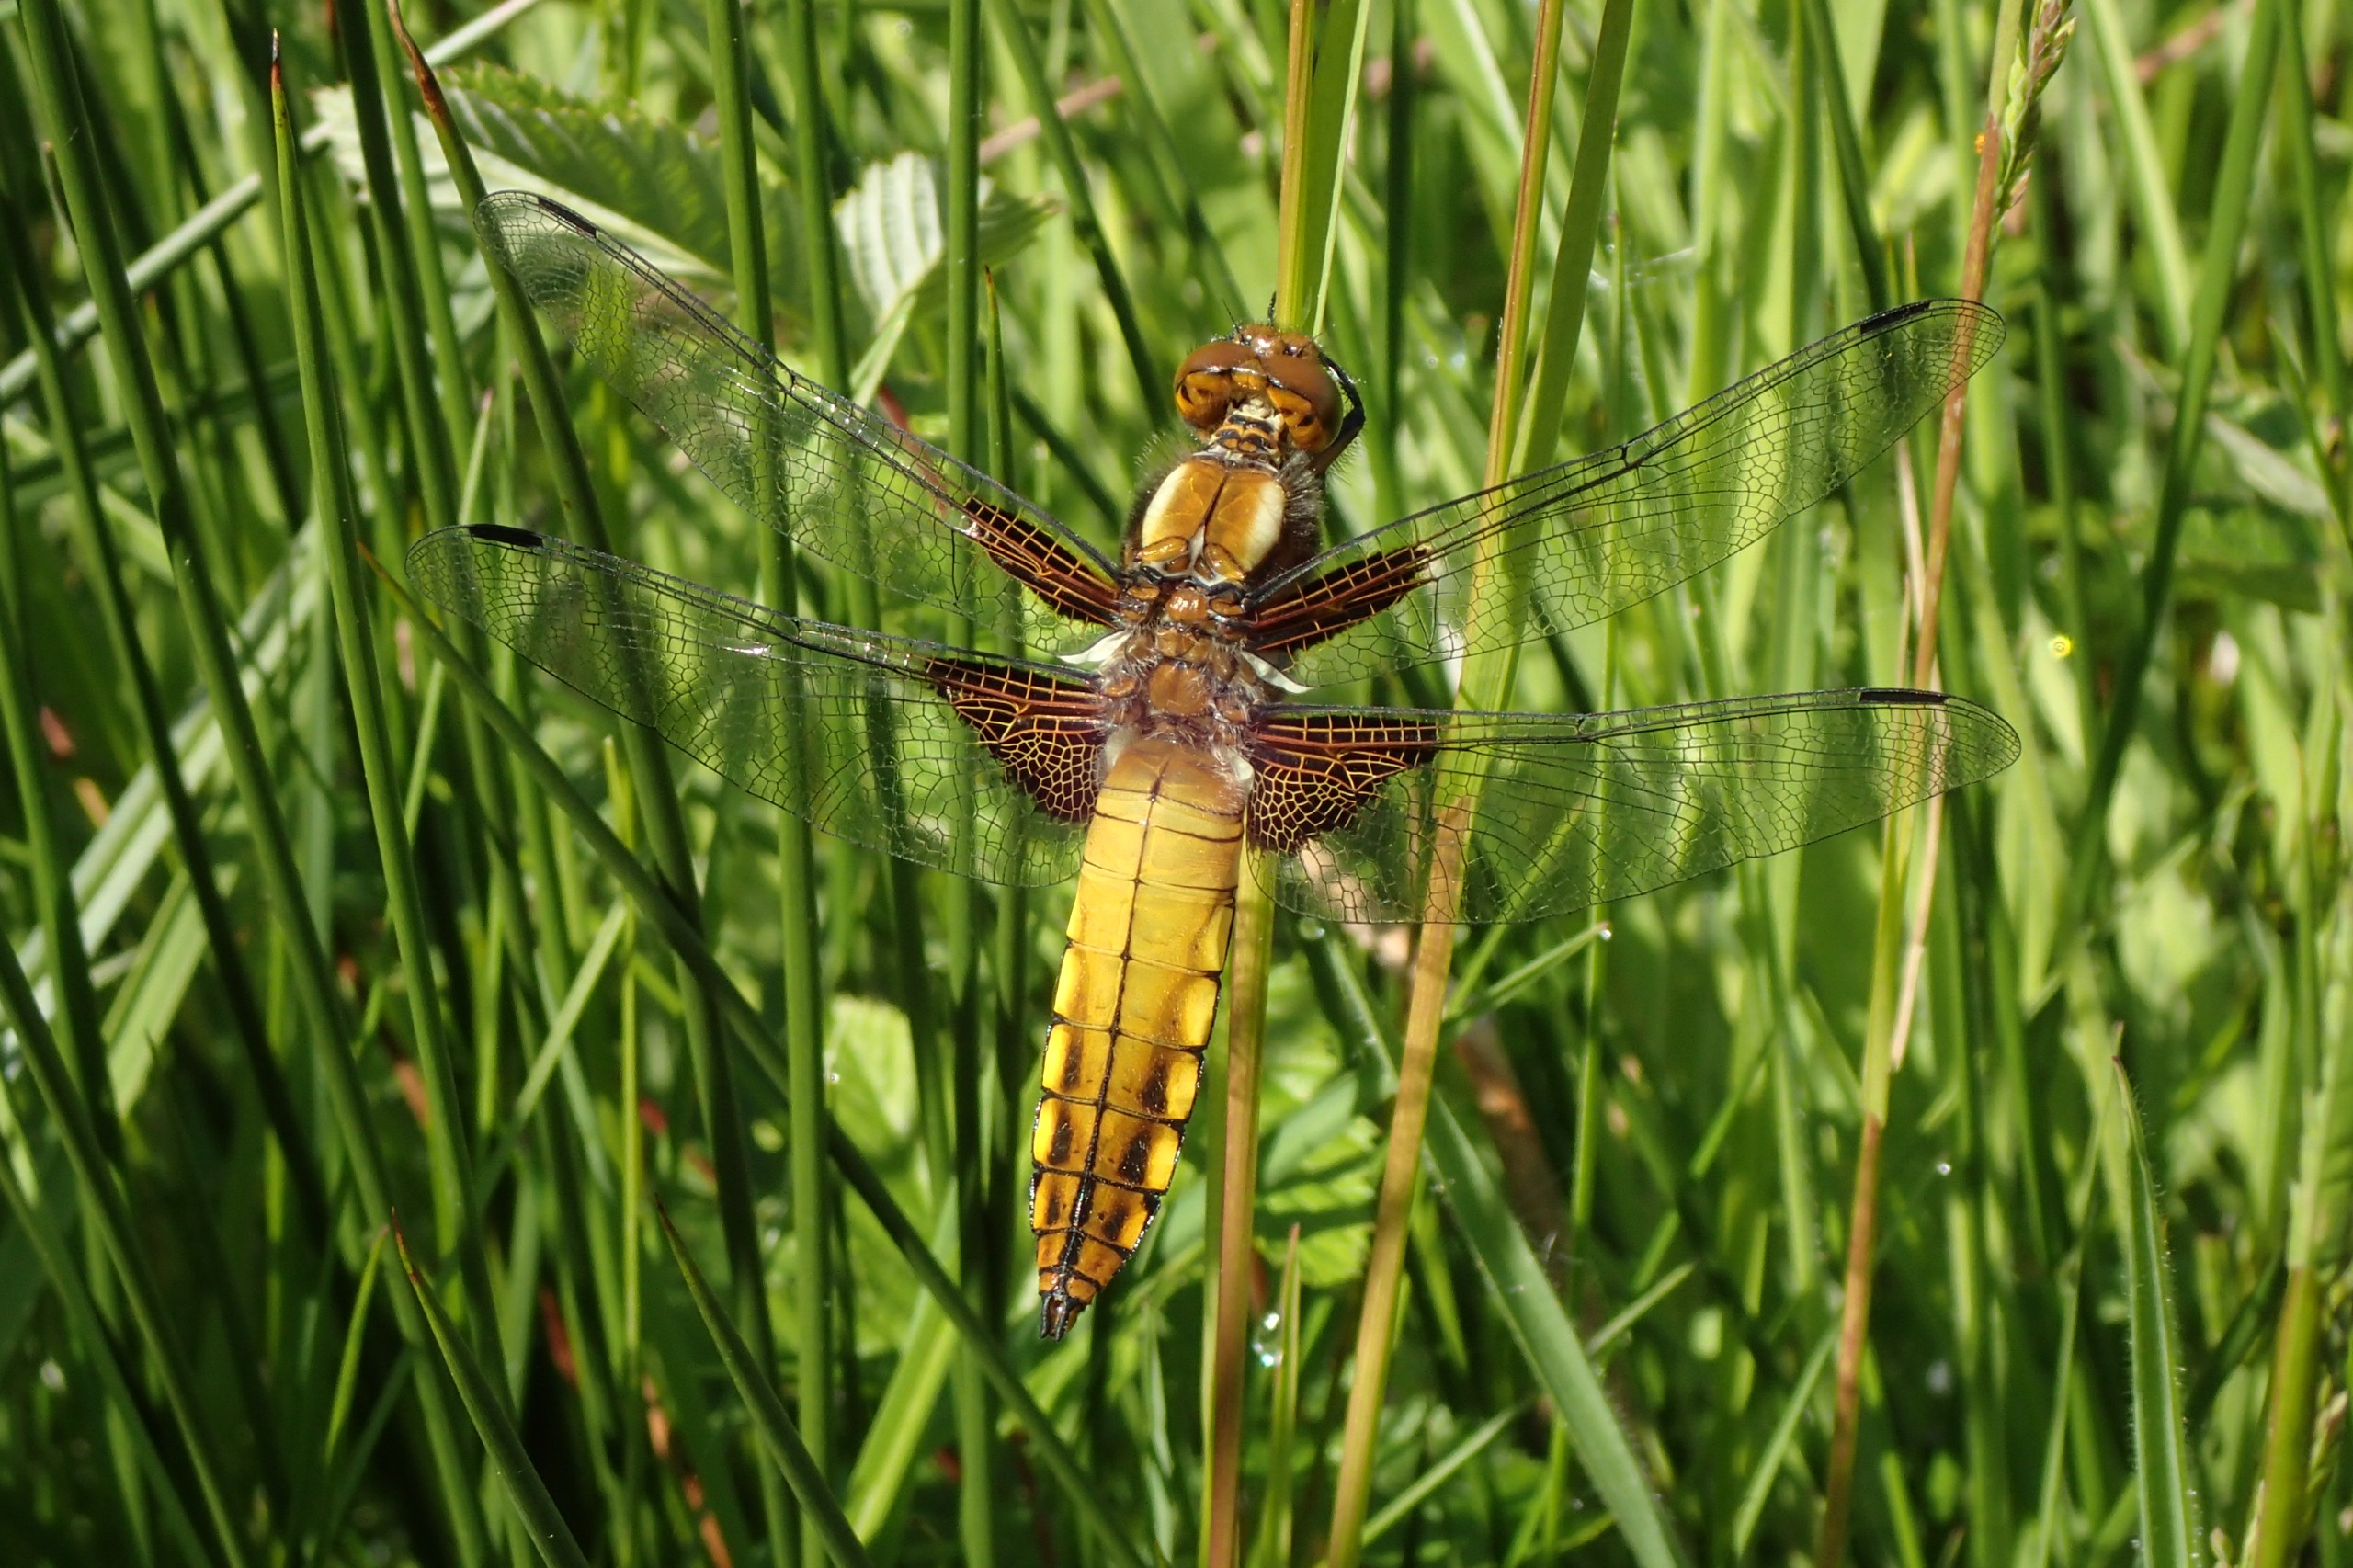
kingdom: Animalia
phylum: Arthropoda
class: Insecta
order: Odonata
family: Libellulidae
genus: Libellula
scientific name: Libellula depressa
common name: Blå libel
